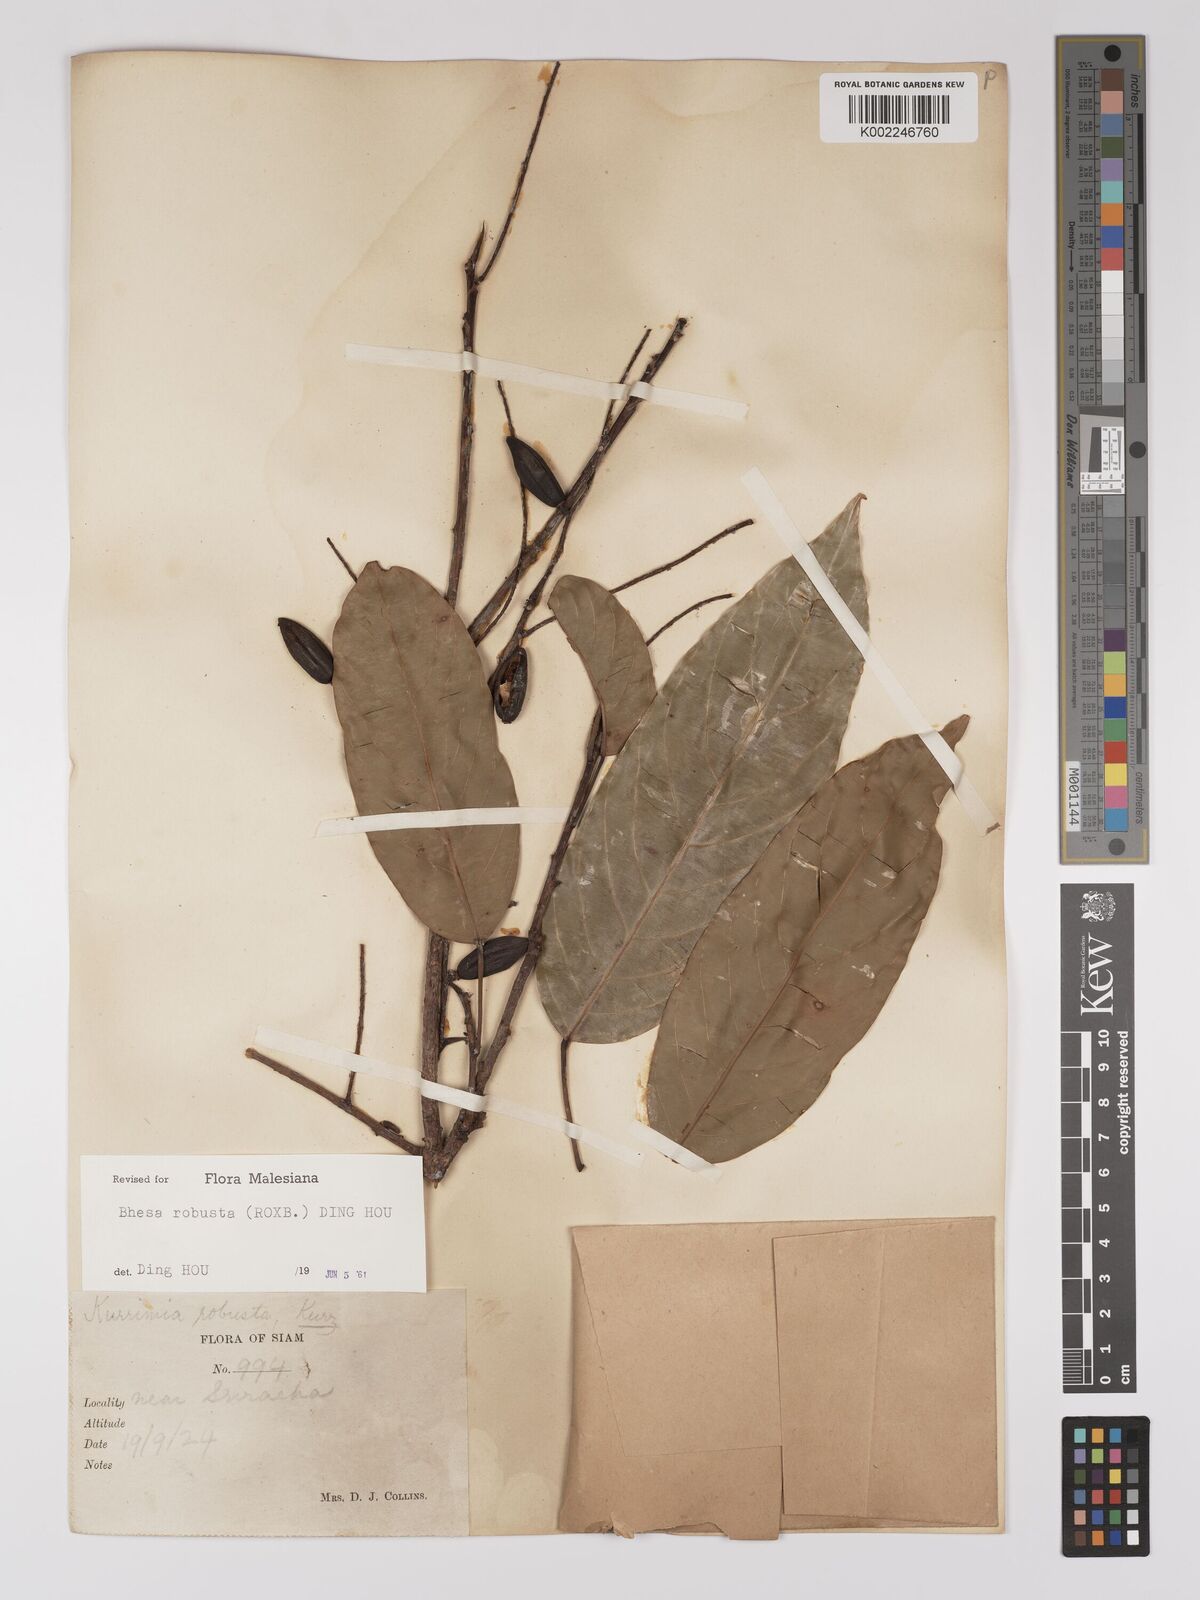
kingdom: Plantae
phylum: Tracheophyta
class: Magnoliopsida
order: Malpighiales
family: Centroplacaceae
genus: Bhesa
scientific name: Bhesa robusta
